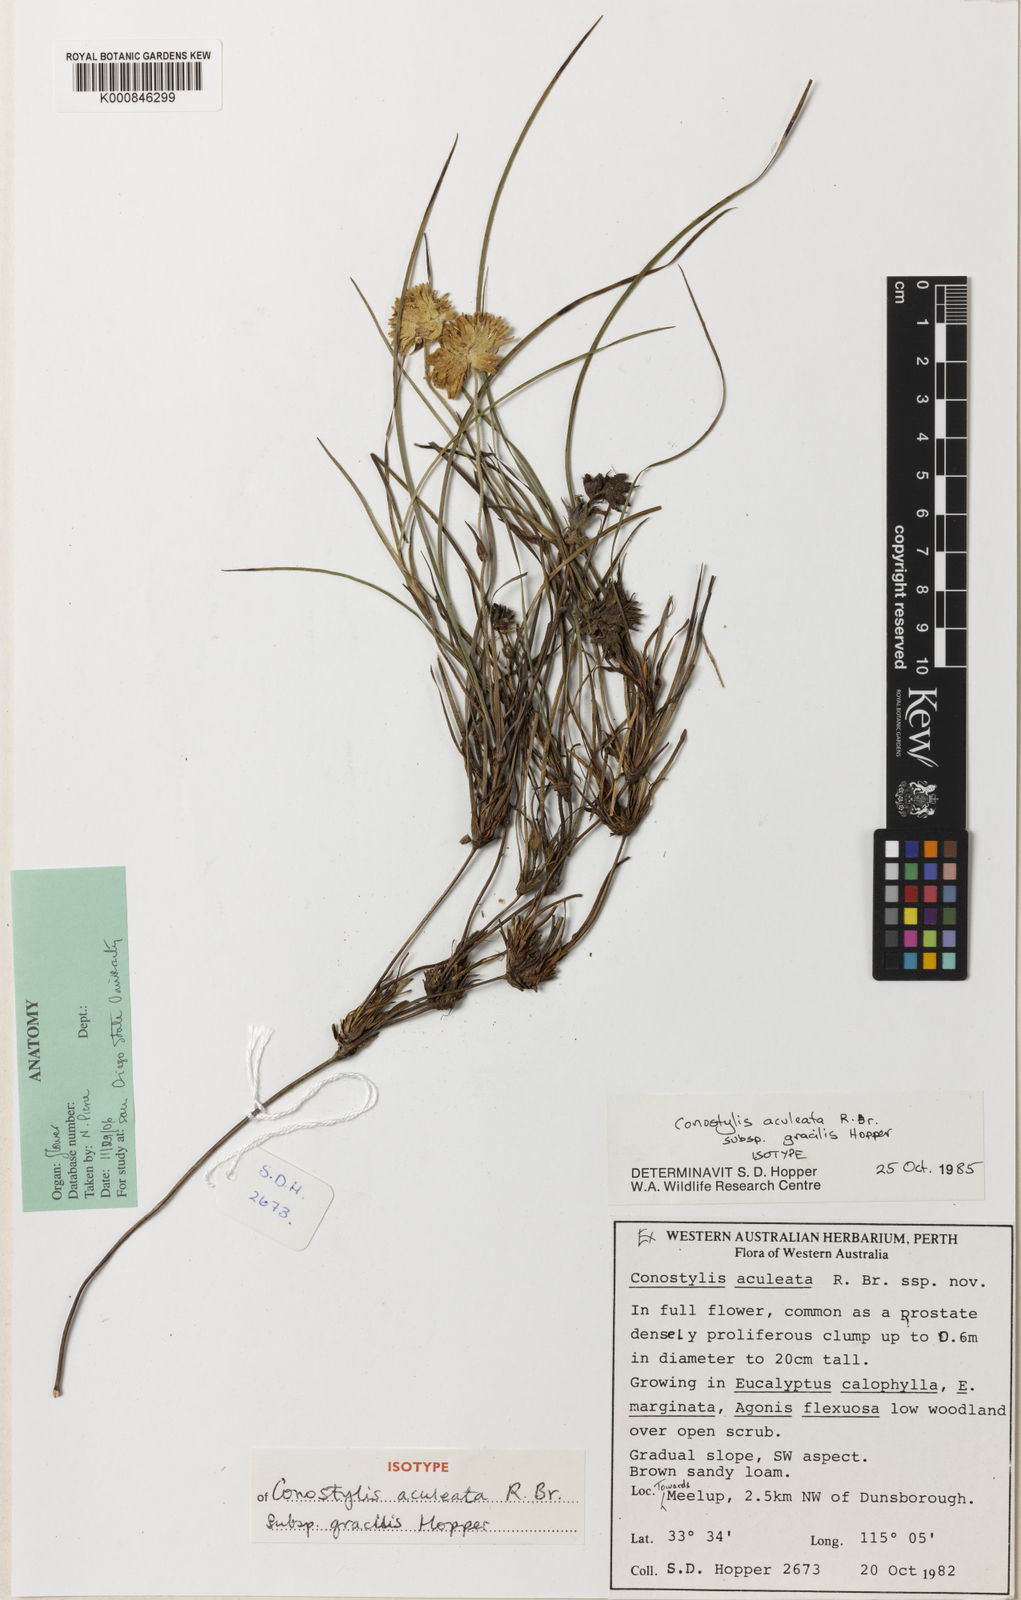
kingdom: Plantae
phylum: Tracheophyta
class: Liliopsida
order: Commelinales
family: Haemodoraceae
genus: Conostylis
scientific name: Conostylis aculeata
